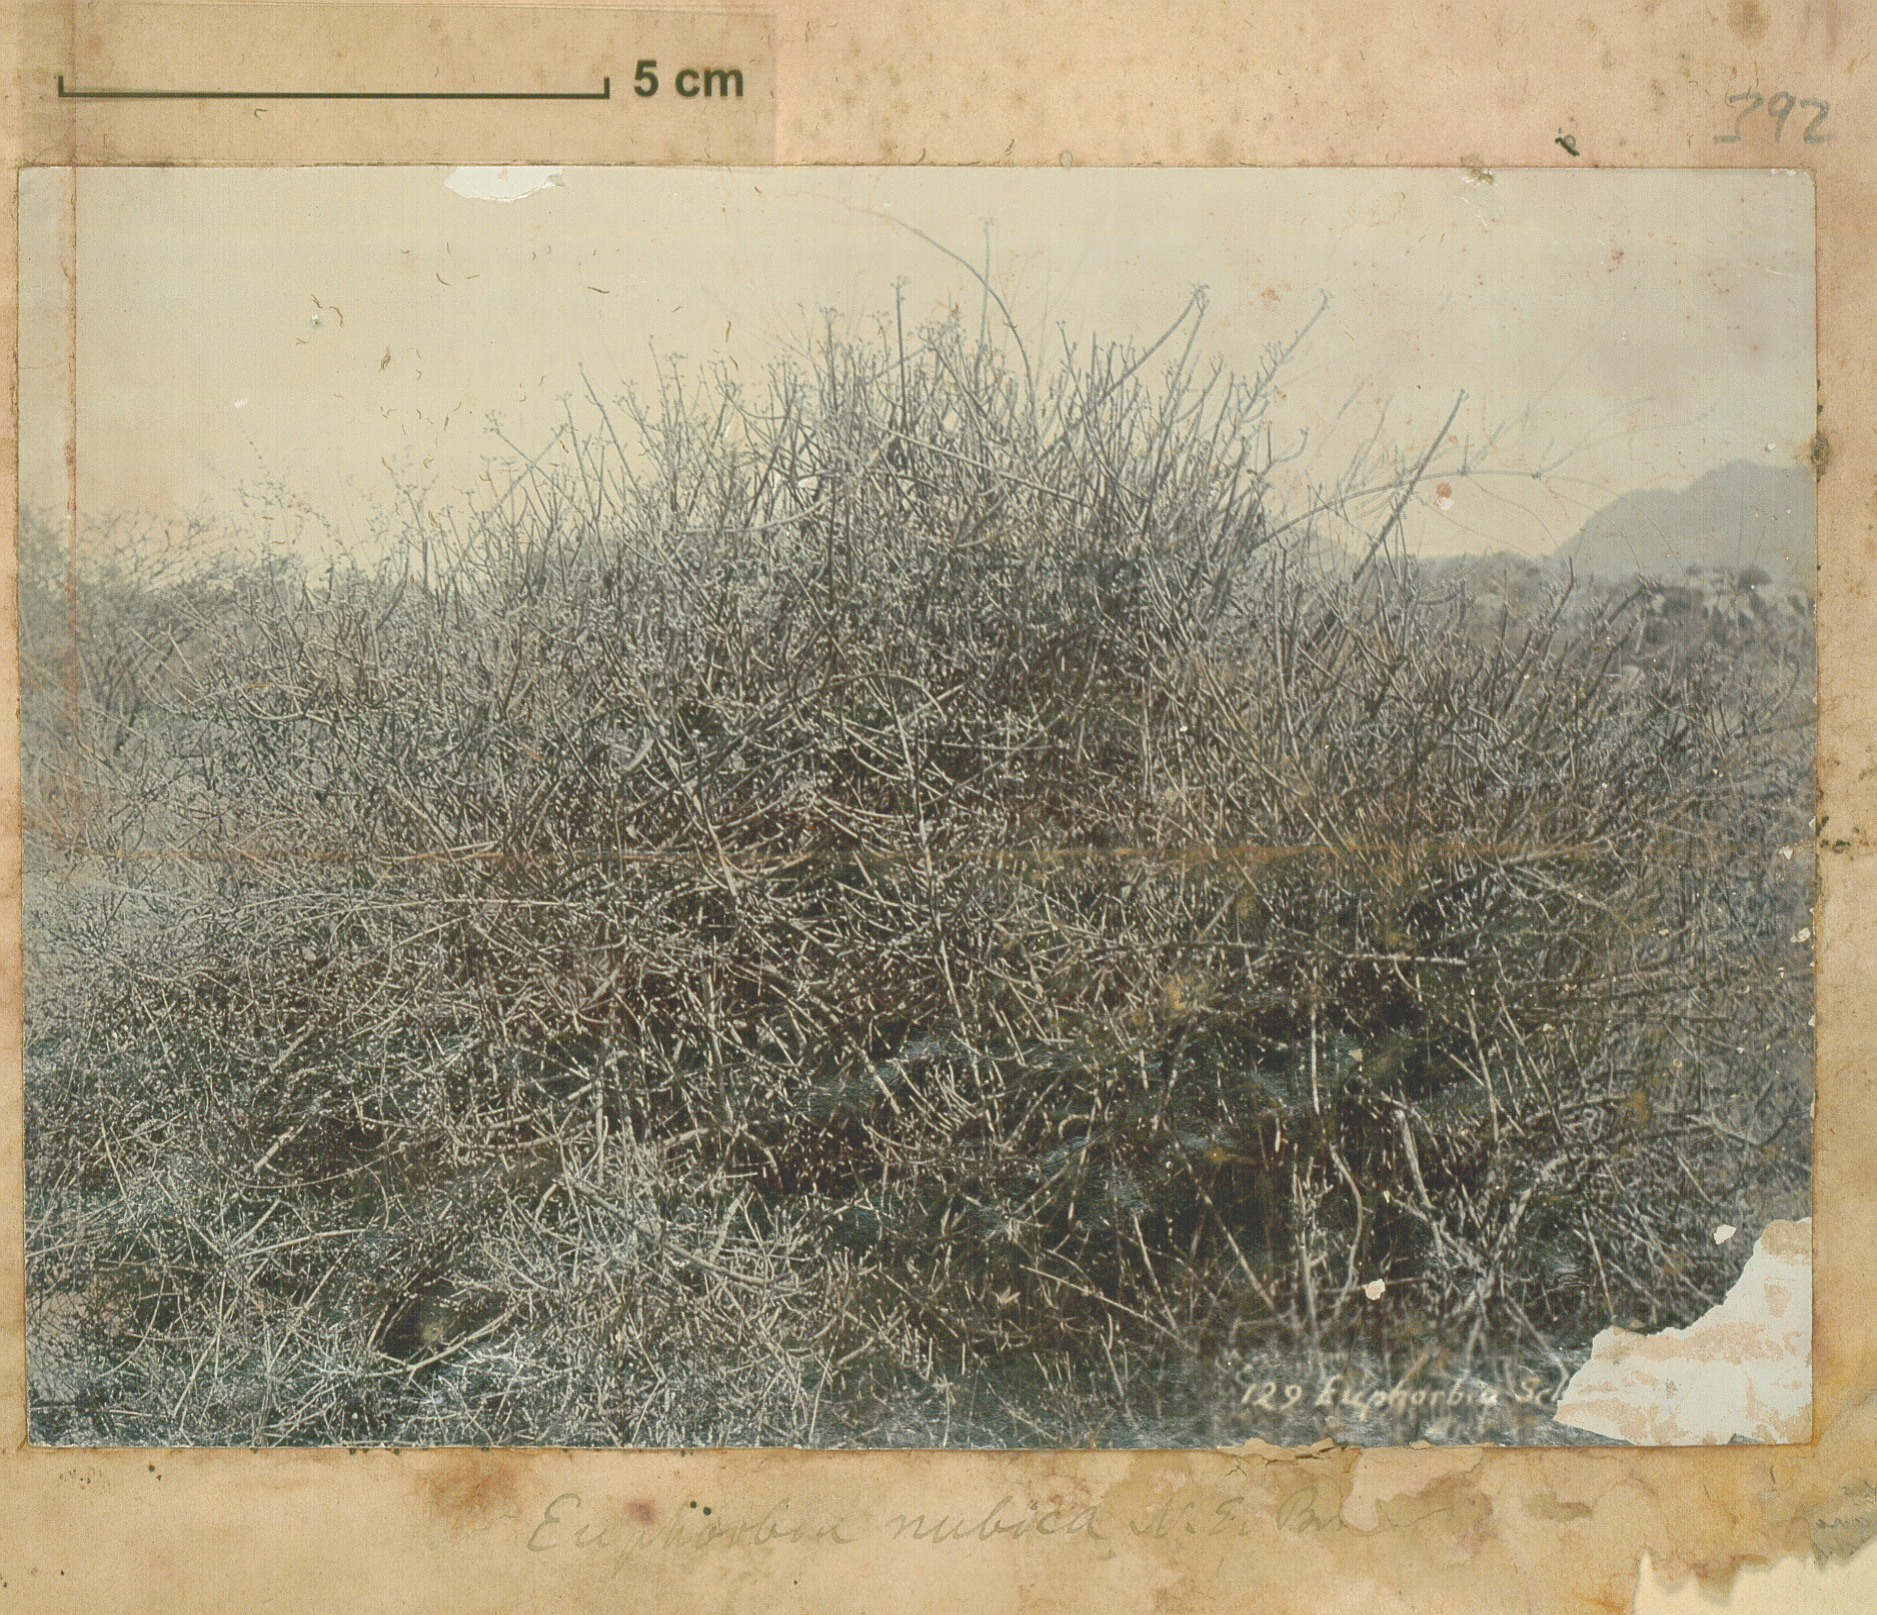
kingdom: Plantae
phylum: Tracheophyta
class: Magnoliopsida
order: Malpighiales
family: Euphorbiaceae
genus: Euphorbia
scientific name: Euphorbia nubica
